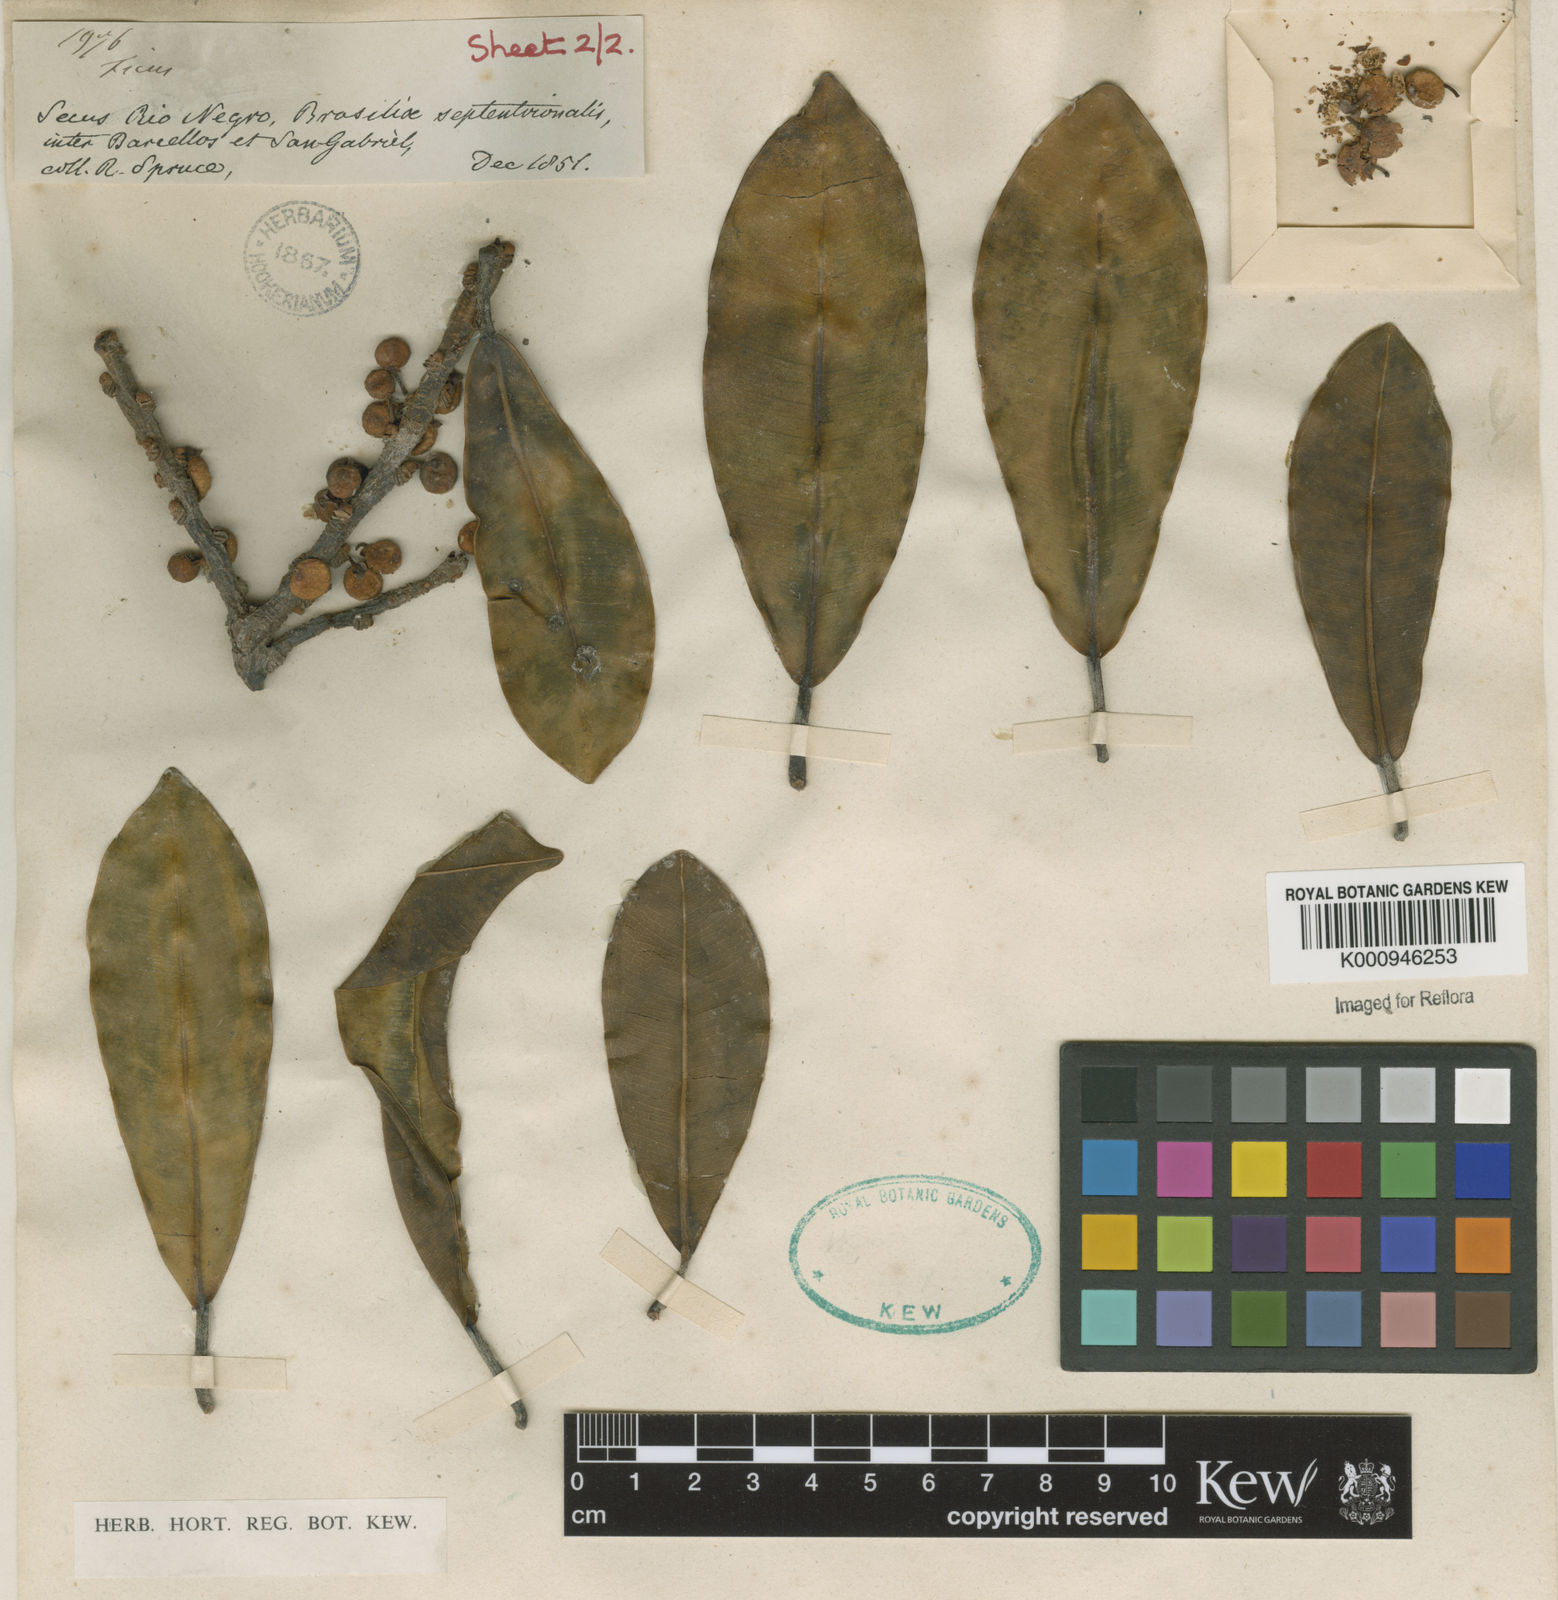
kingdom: Plantae
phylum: Tracheophyta
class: Magnoliopsida
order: Rosales
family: Moraceae
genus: Ficus
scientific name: Ficus sphenophylla
